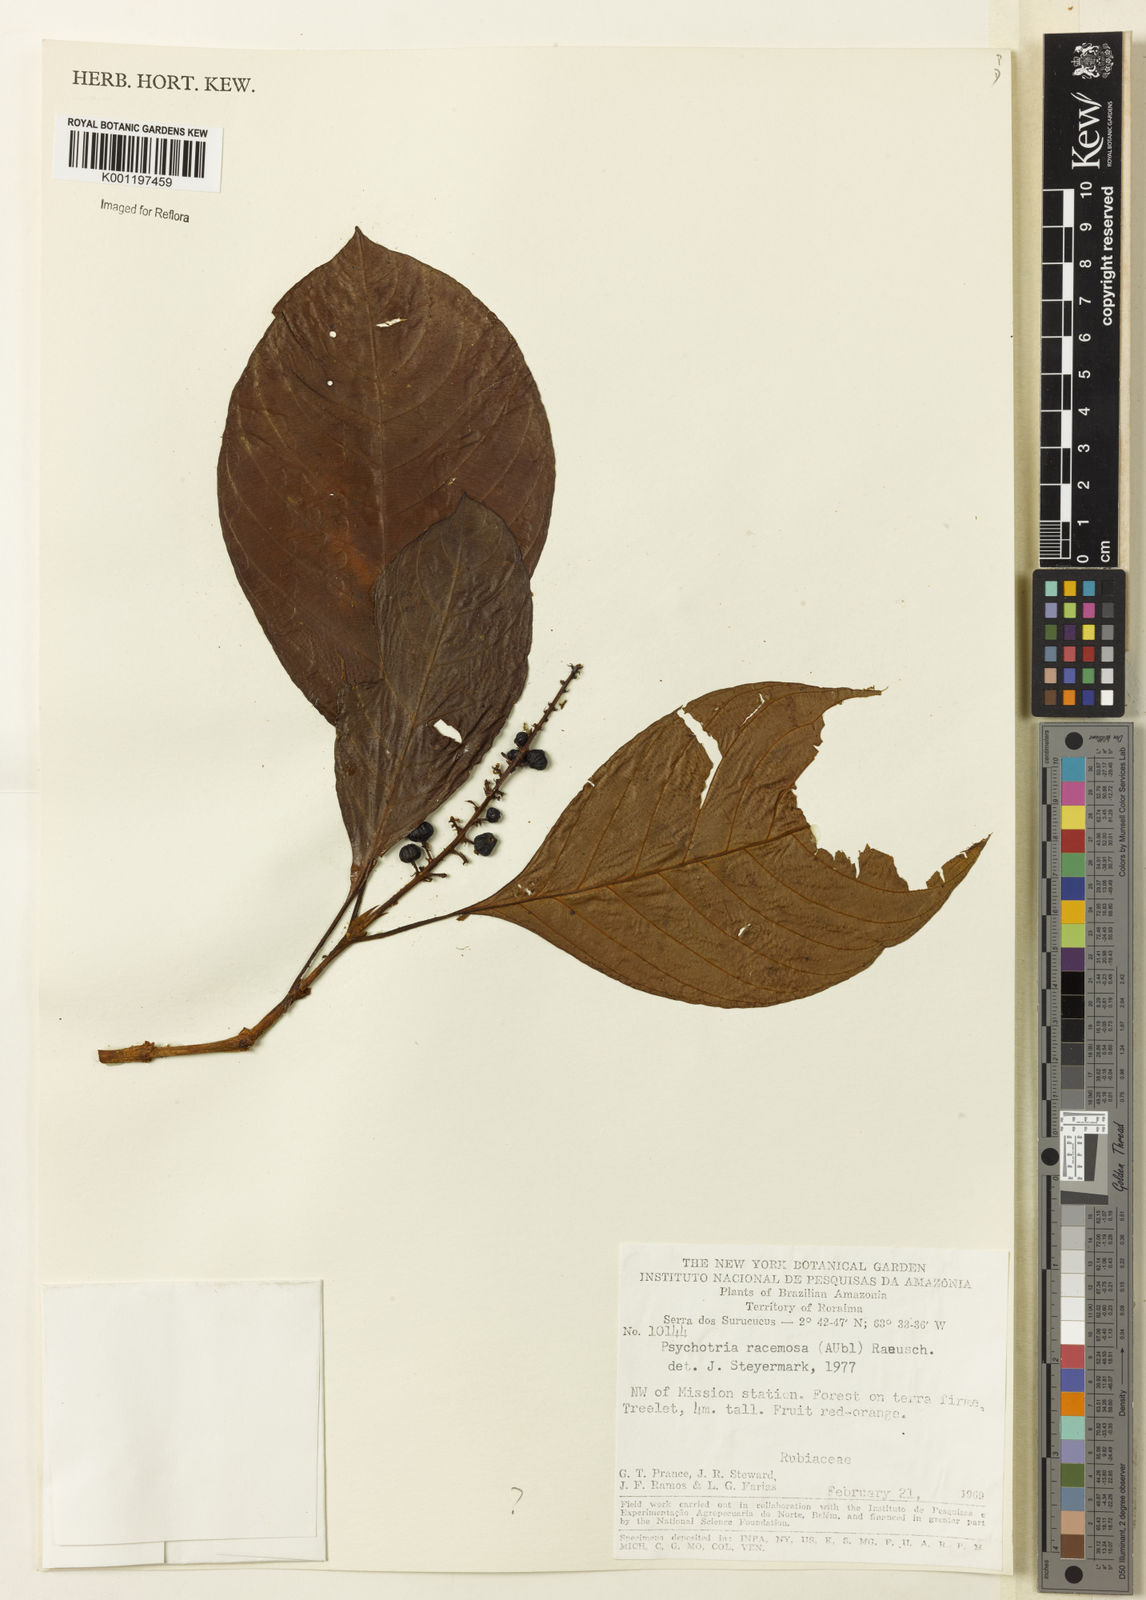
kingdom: Plantae
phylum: Tracheophyta
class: Magnoliopsida
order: Gentianales
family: Rubiaceae
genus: Palicourea
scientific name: Palicourea racemosa
